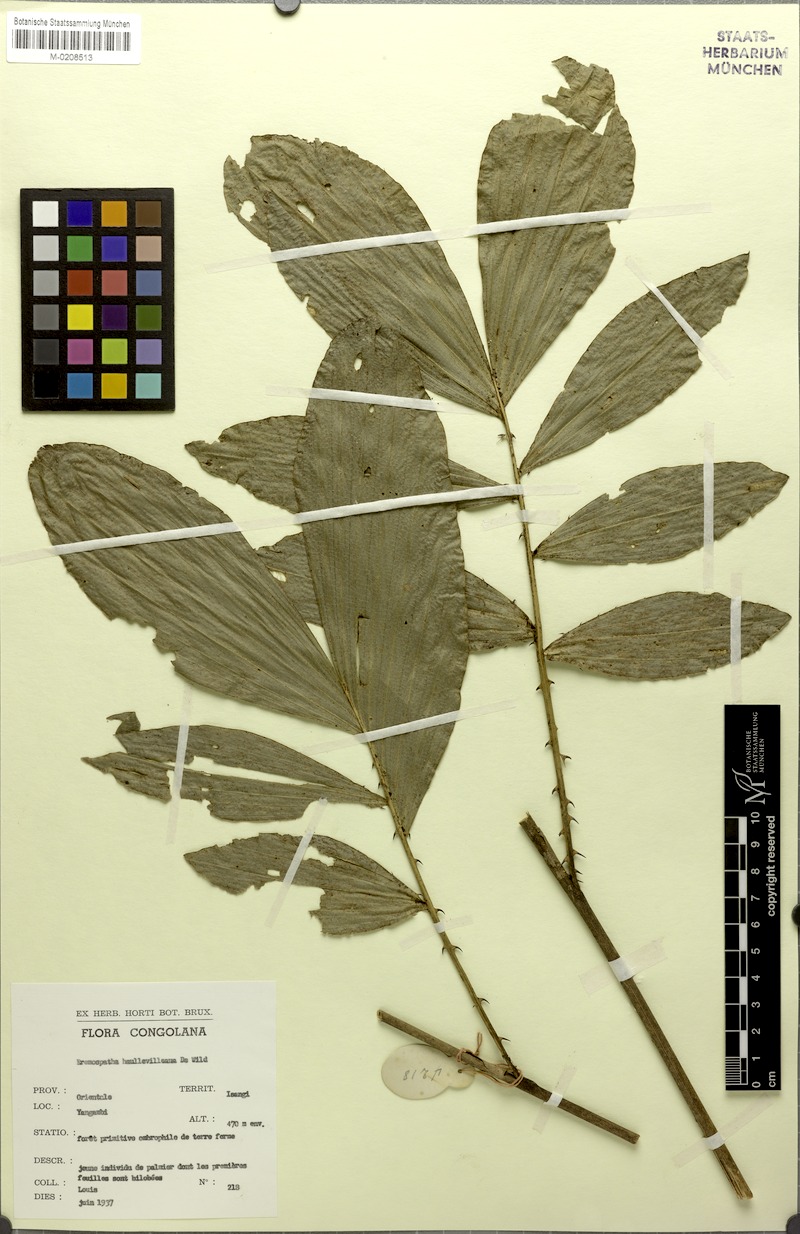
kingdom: Plantae
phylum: Tracheophyta
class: Liliopsida
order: Arecales
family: Arecaceae
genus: Eremospatha
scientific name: Eremospatha haullevilleana
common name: Rattan
